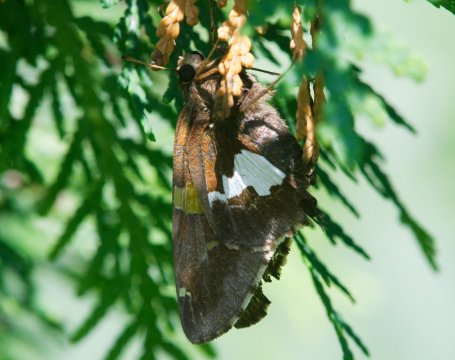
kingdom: Animalia
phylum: Arthropoda
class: Insecta
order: Lepidoptera
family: Hesperiidae
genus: Epargyreus
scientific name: Epargyreus clarus
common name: Silver-spotted Skipper
